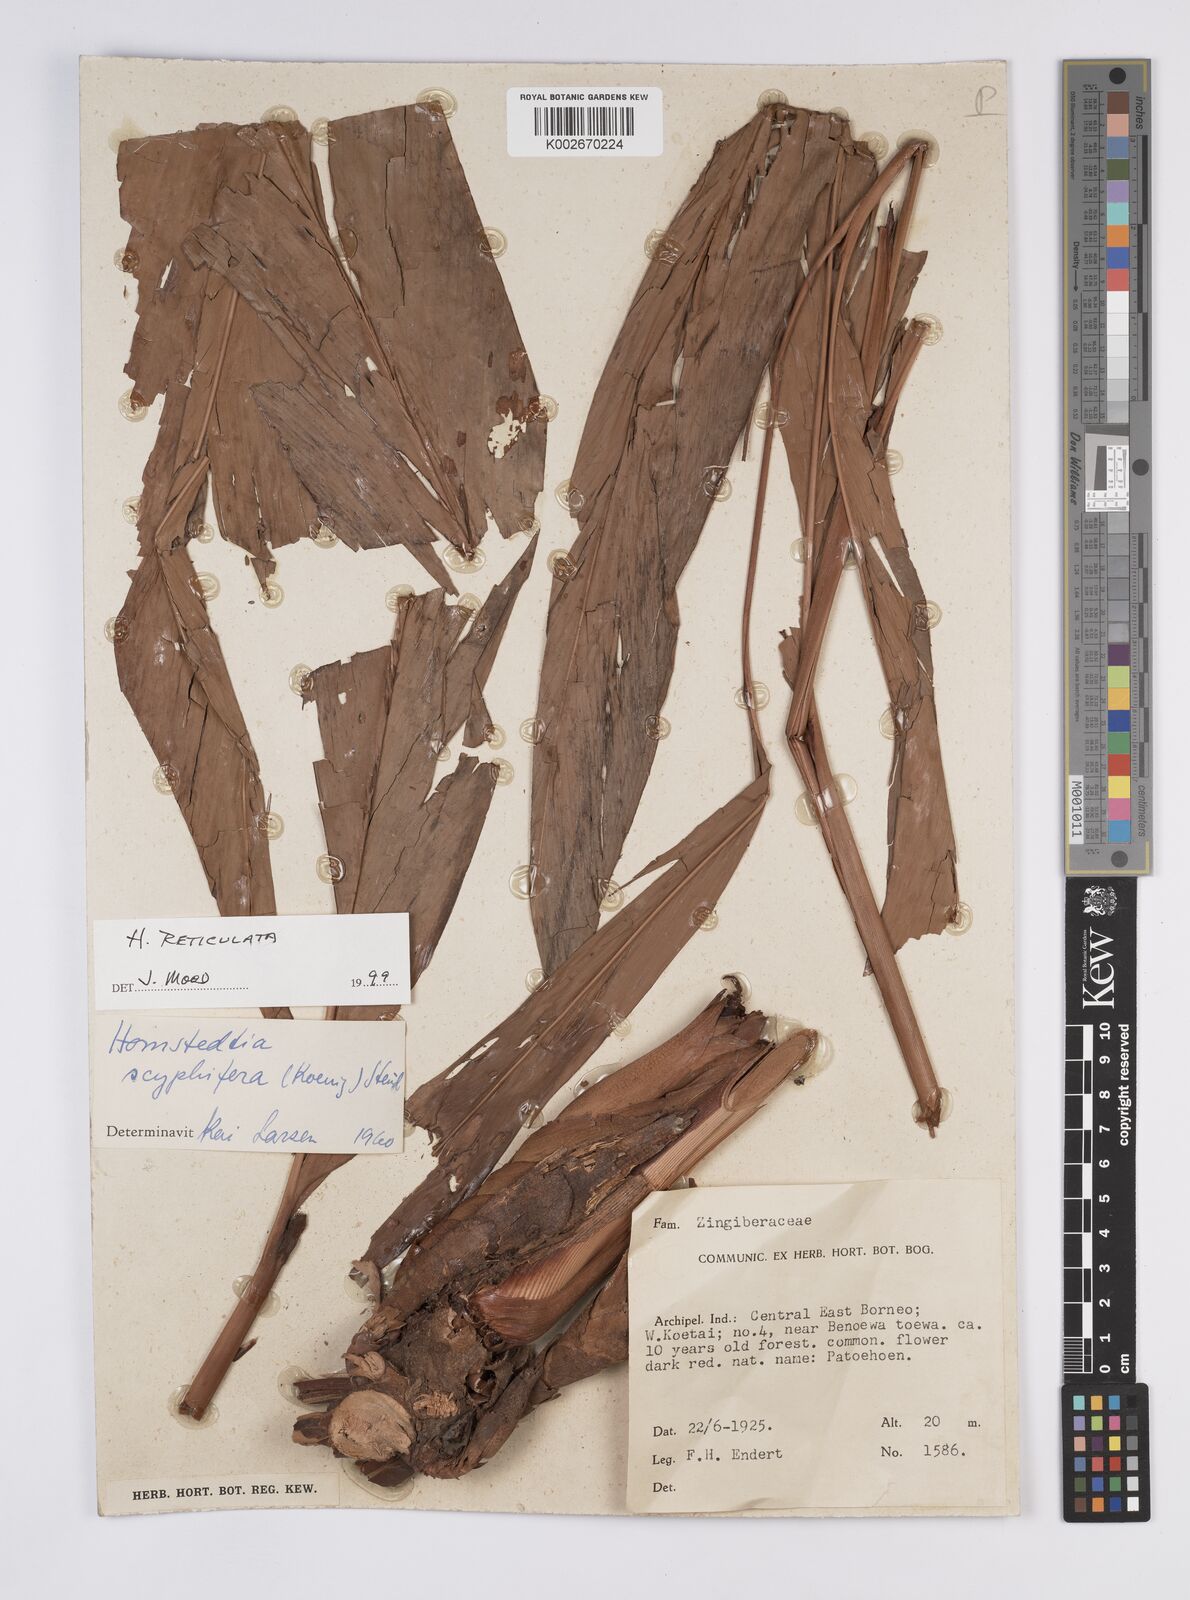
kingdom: Plantae
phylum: Tracheophyta
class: Liliopsida
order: Zingiberales
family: Zingiberaceae
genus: Hornstedtia
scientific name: Hornstedtia reticulata
